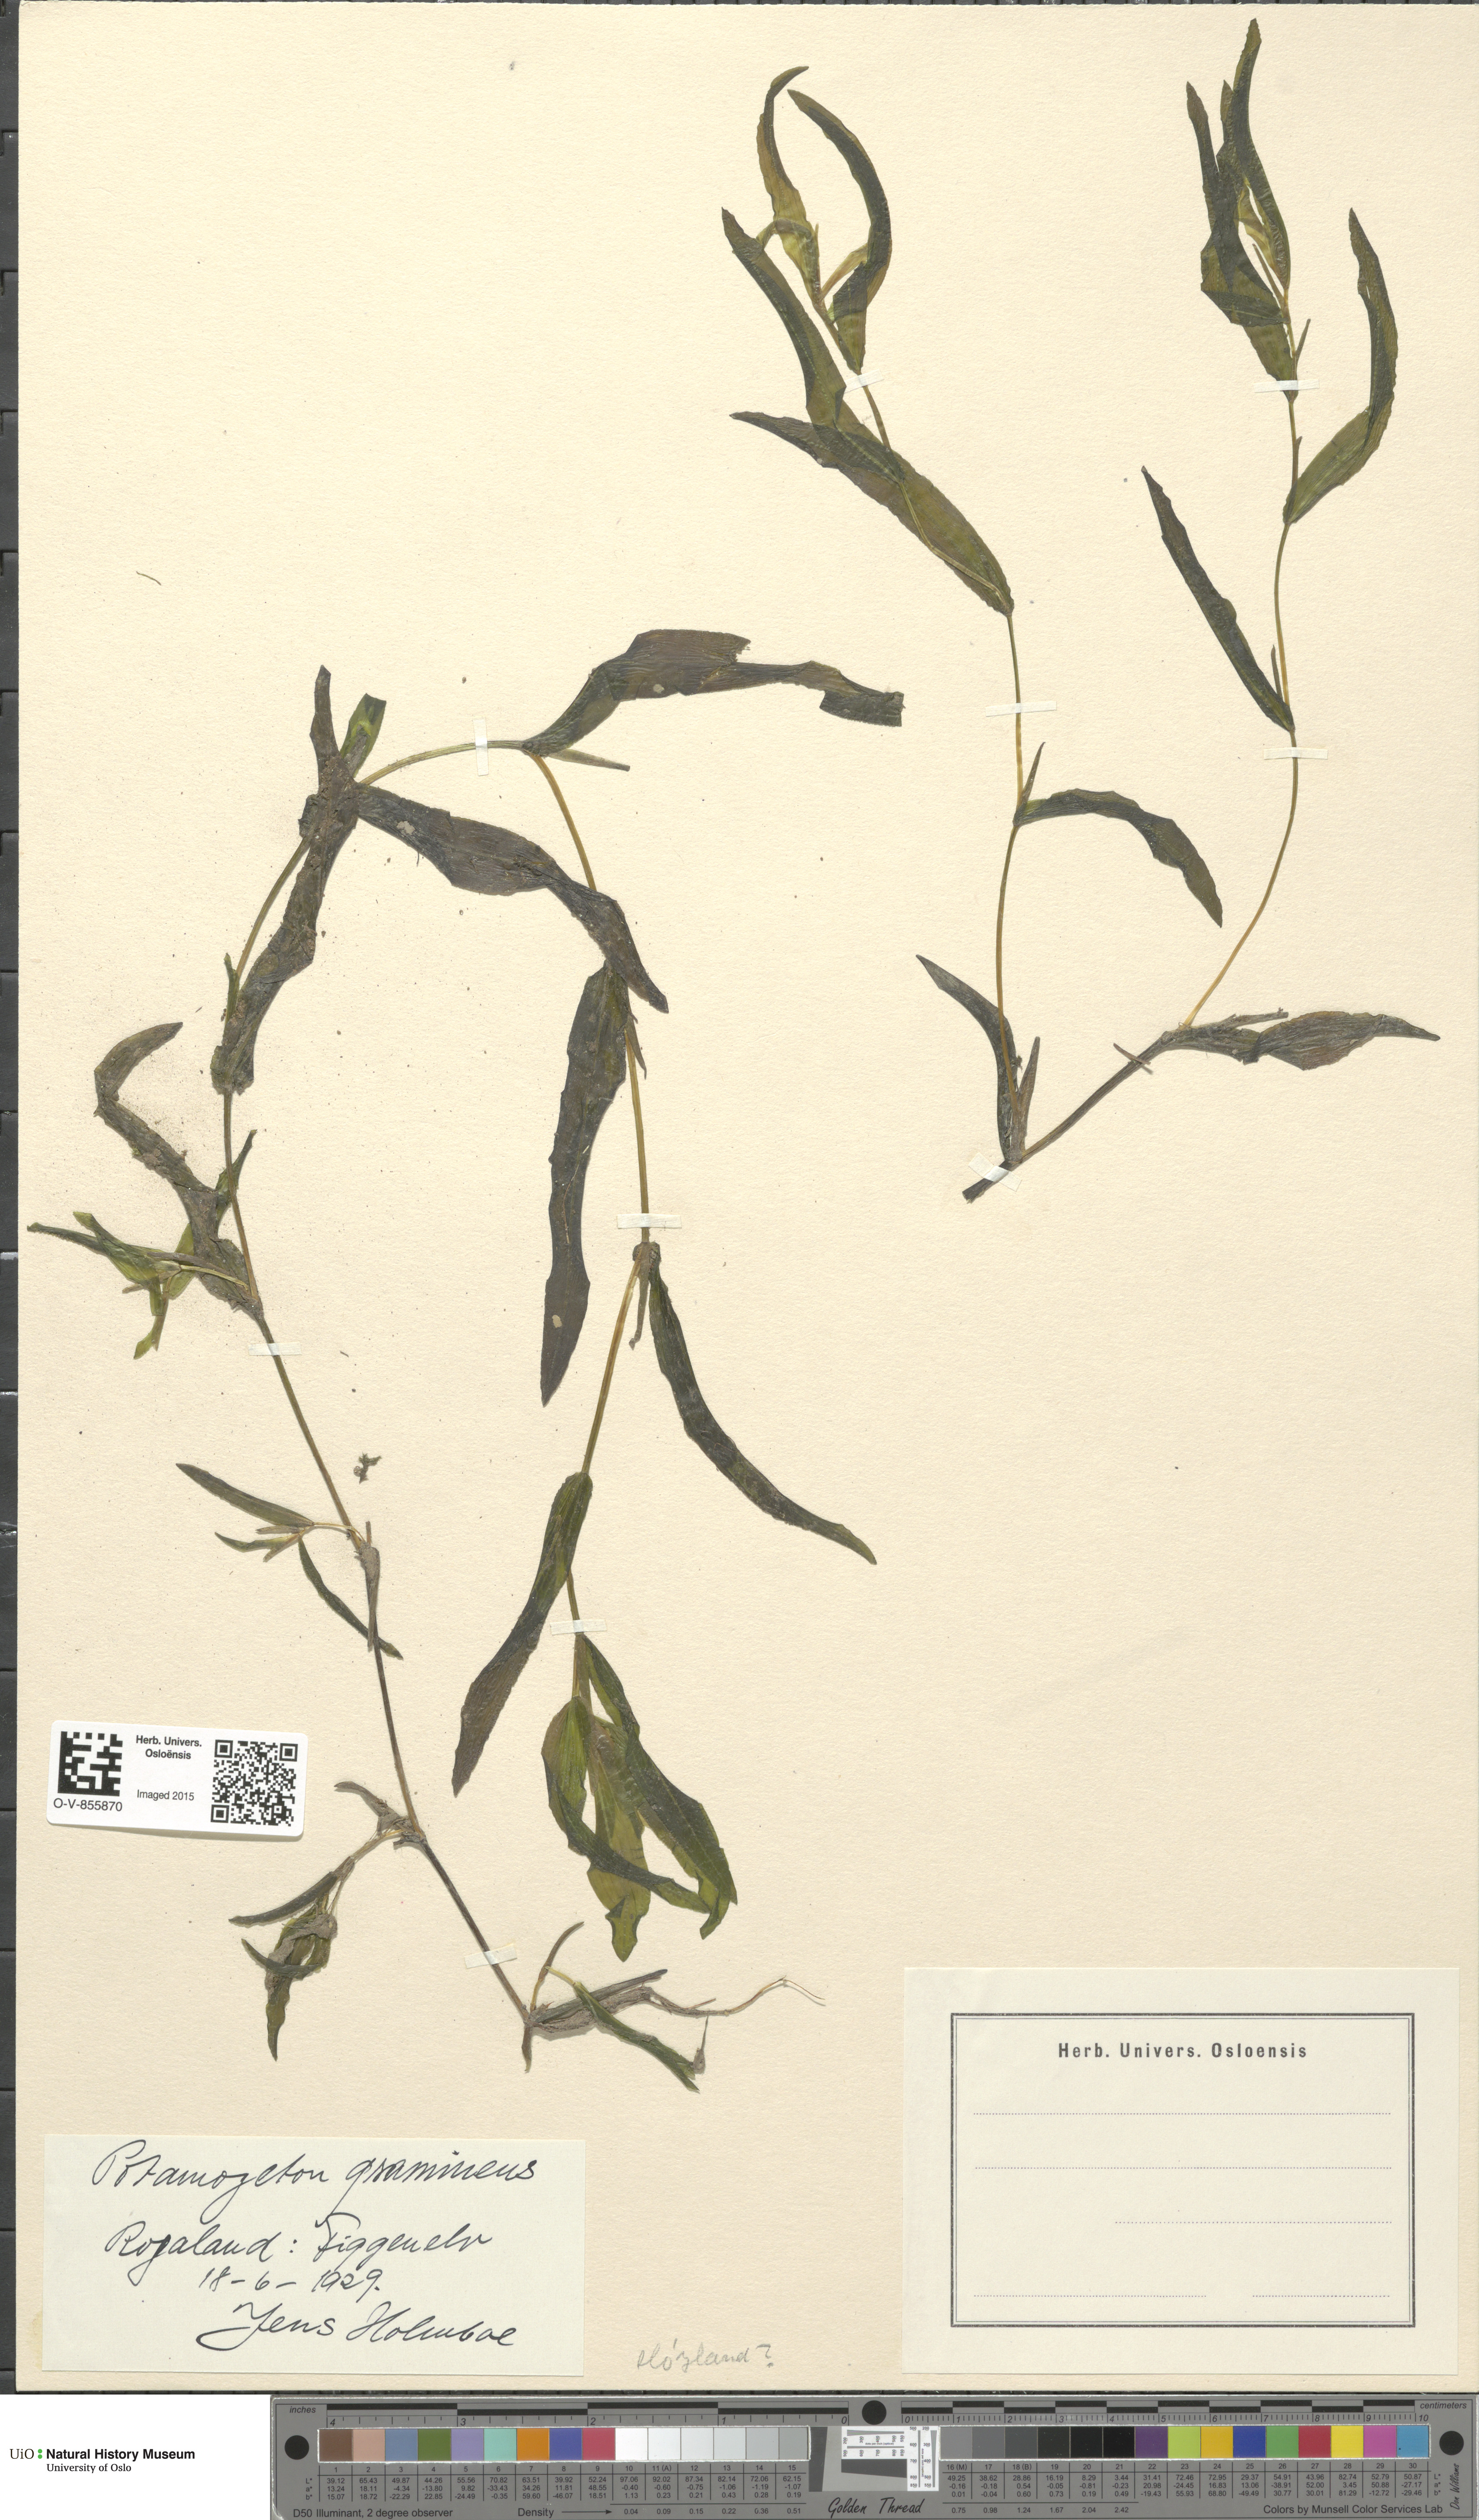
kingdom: Plantae
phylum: Tracheophyta
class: Liliopsida
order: Alismatales
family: Potamogetonaceae
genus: Potamogeton
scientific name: Potamogeton nitens
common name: Pondweed
